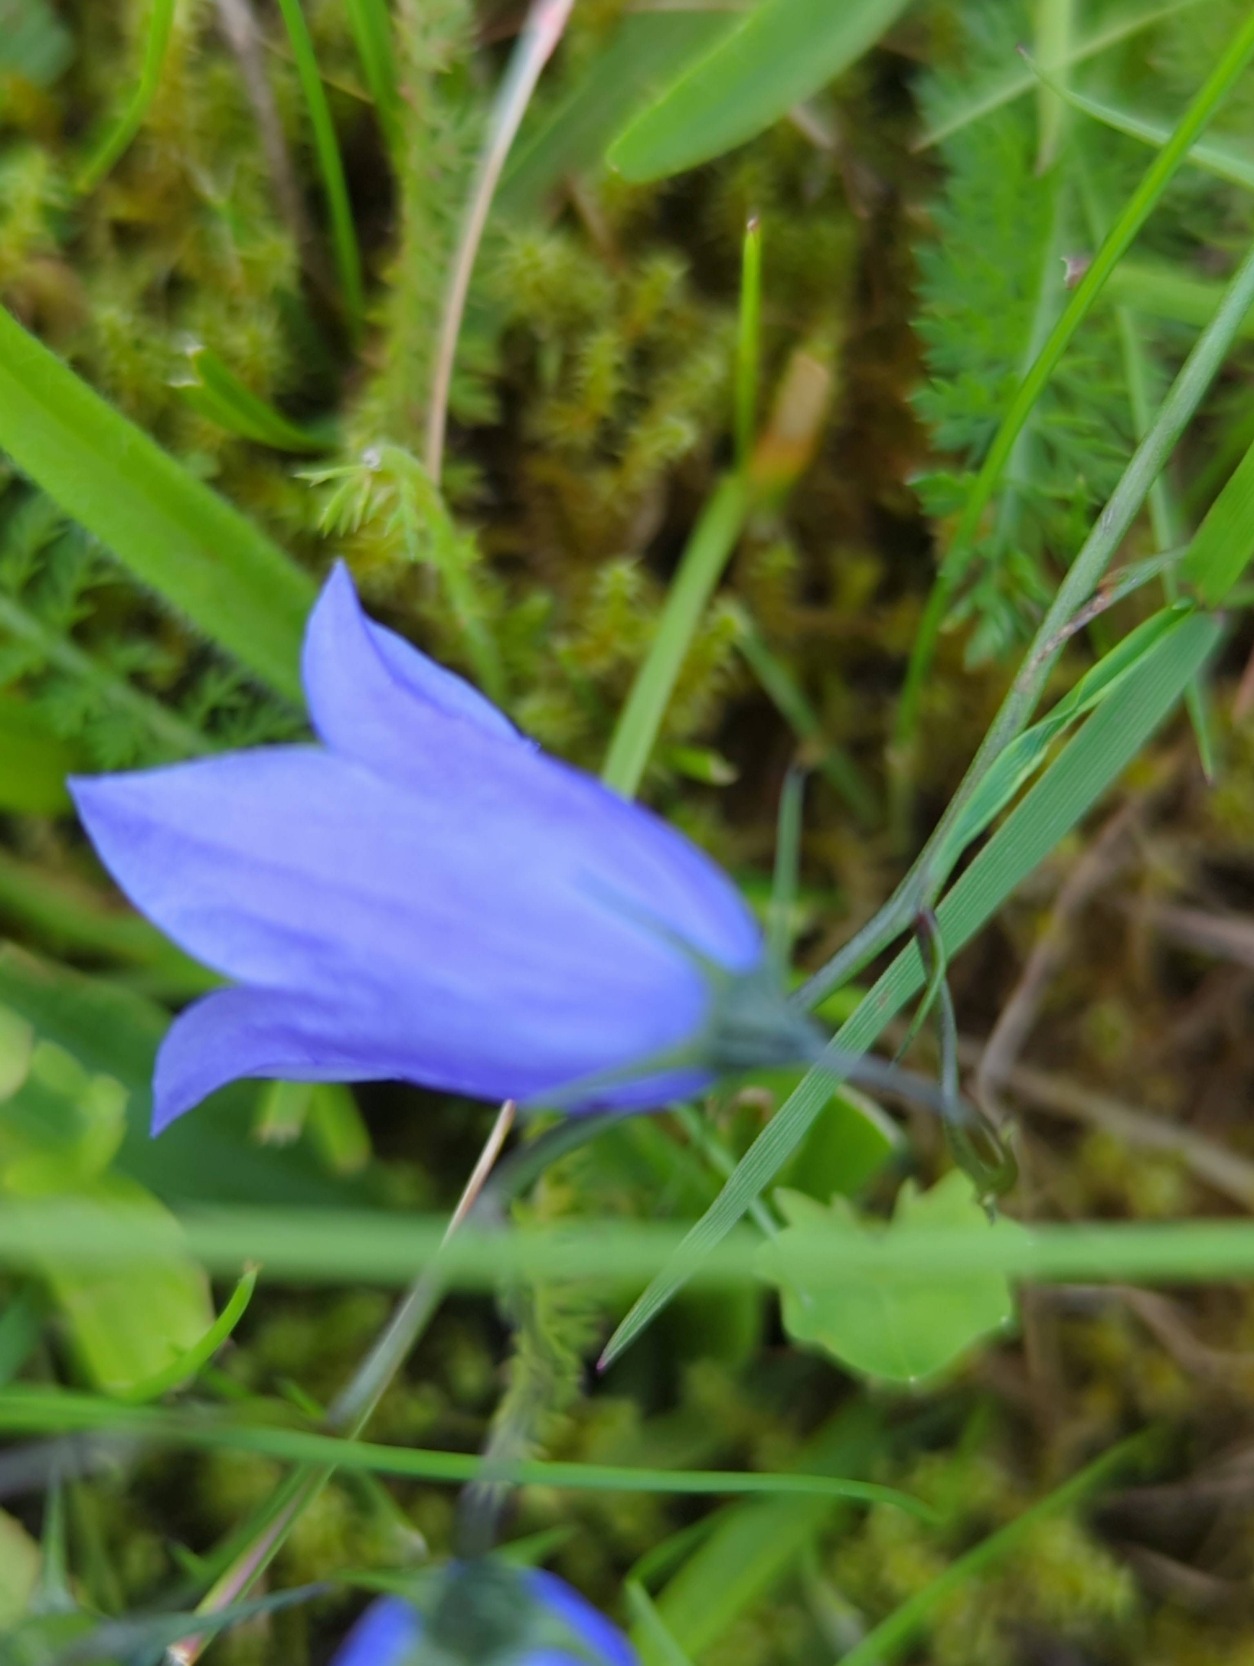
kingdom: Plantae
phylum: Tracheophyta
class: Magnoliopsida
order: Asterales
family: Campanulaceae
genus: Campanula
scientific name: Campanula rotundifolia
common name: Liden klokke
